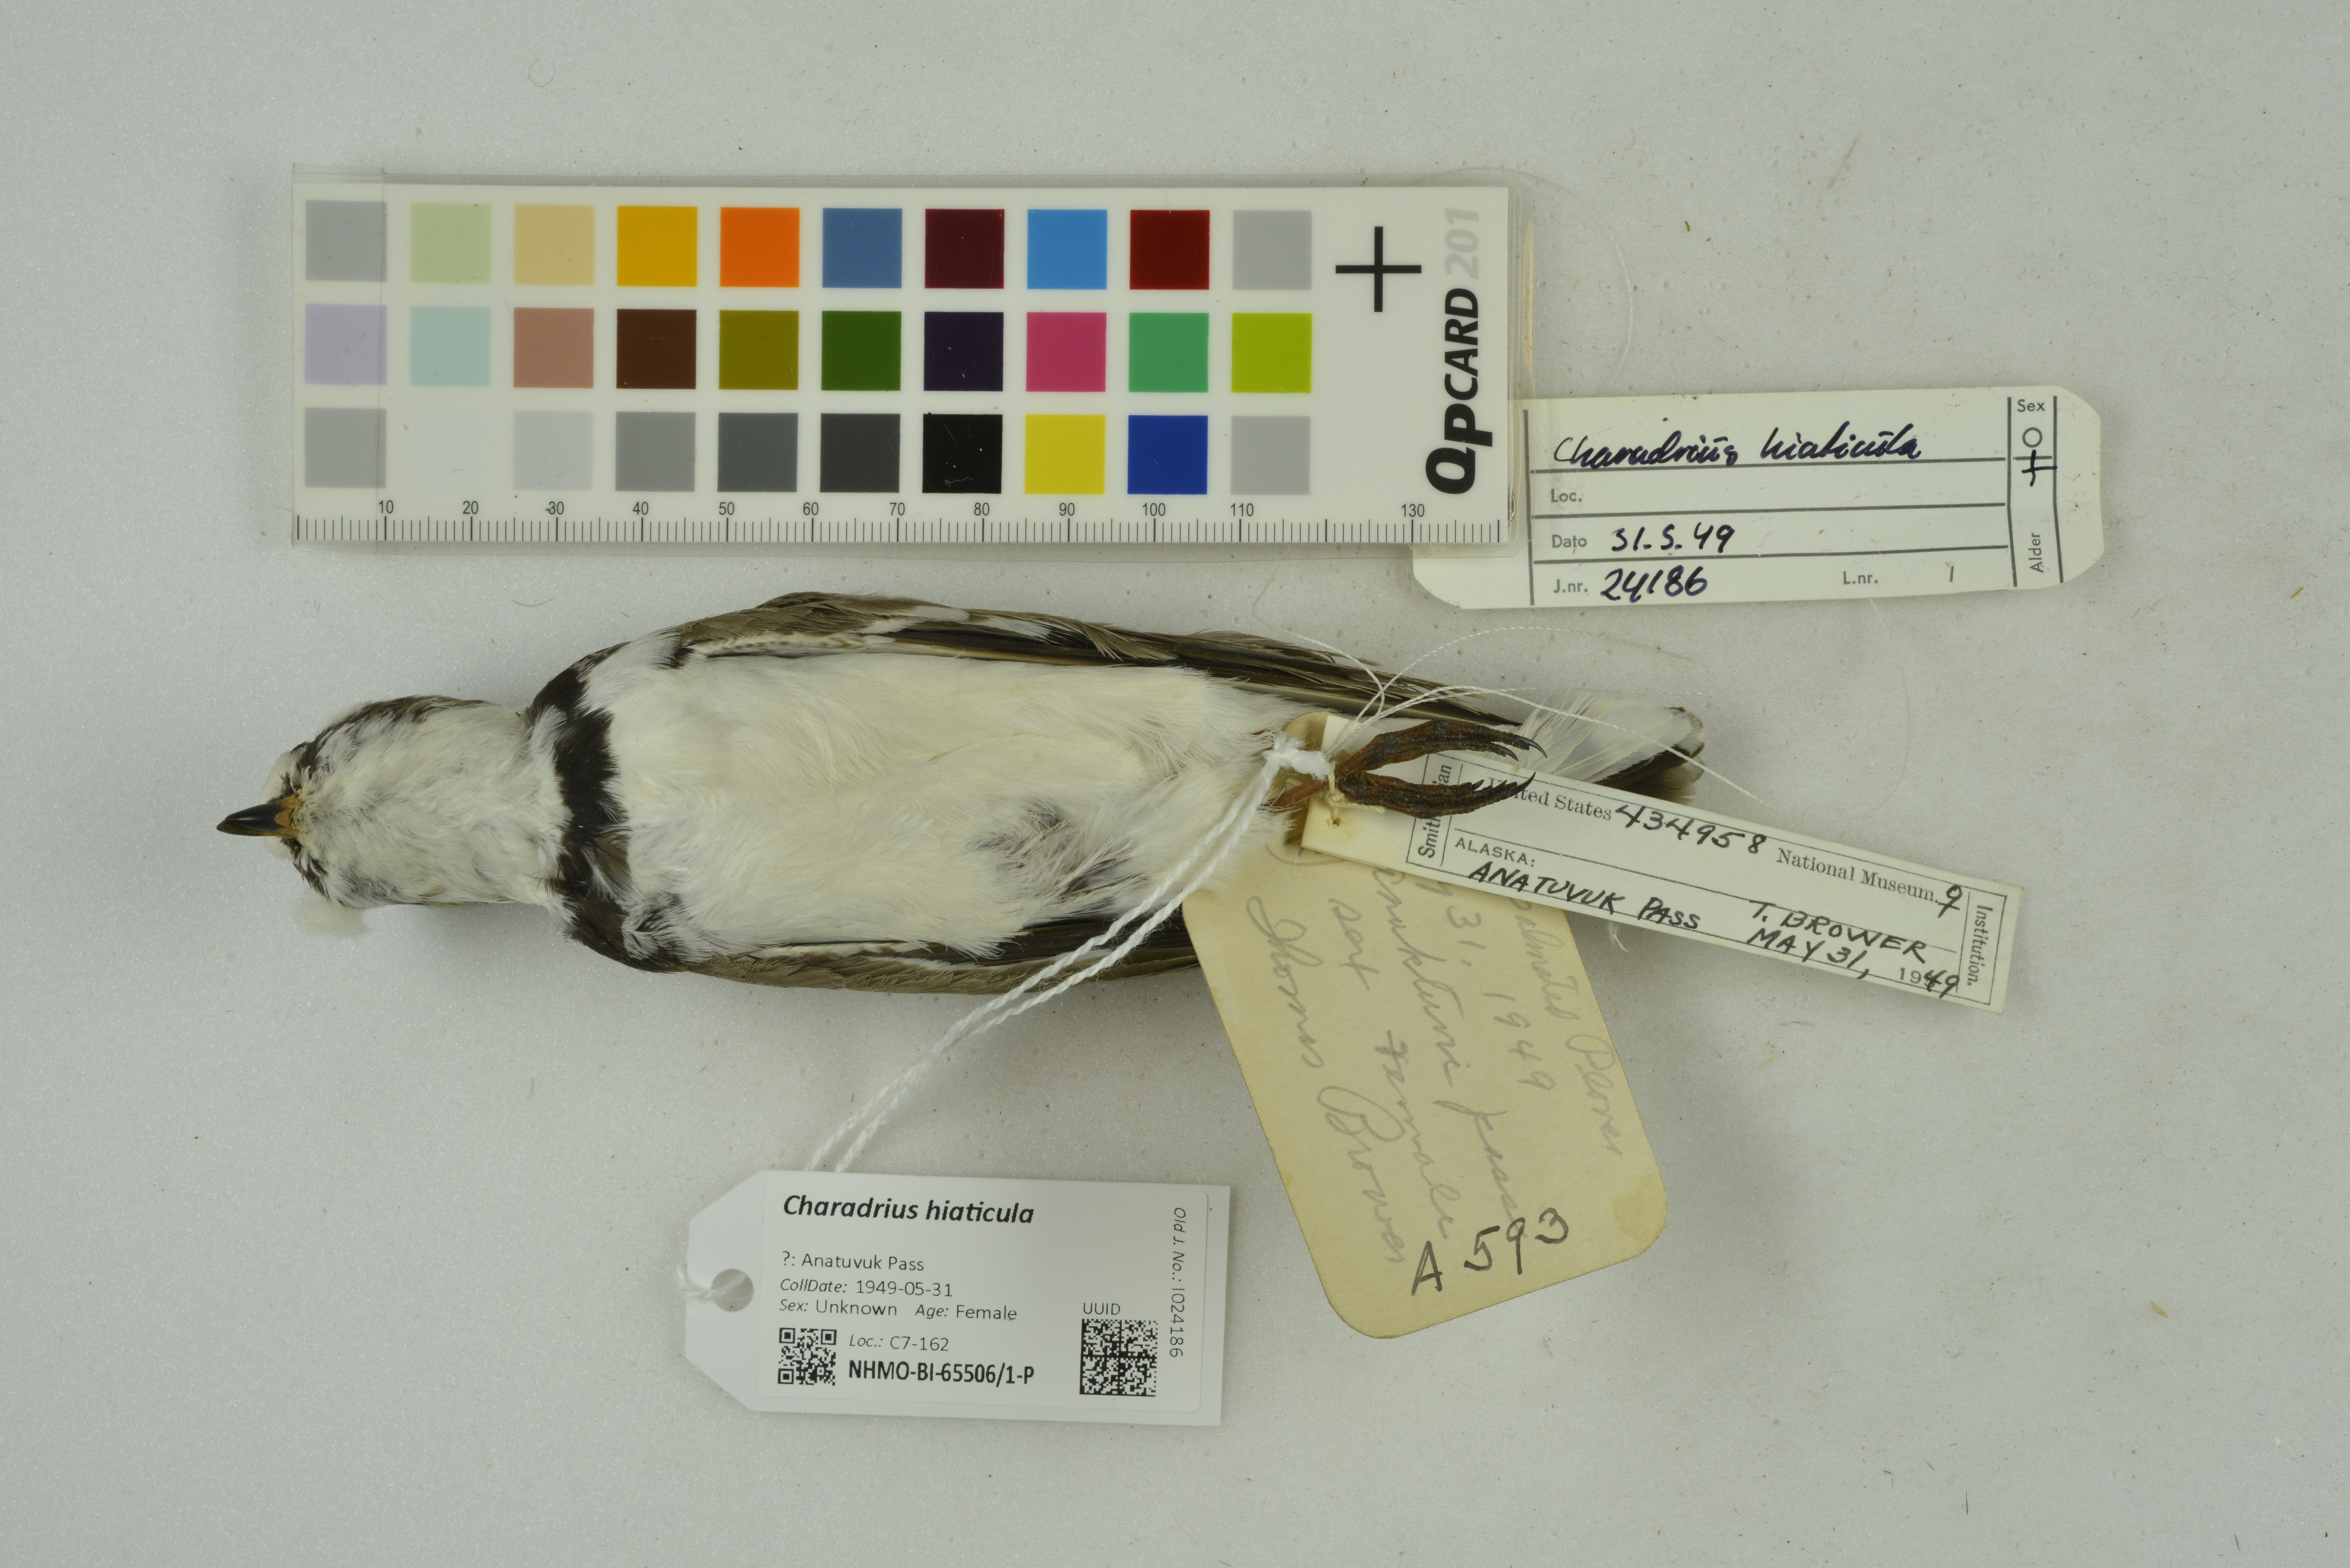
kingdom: Animalia
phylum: Chordata
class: Aves
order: Charadriiformes
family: Charadriidae
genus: Charadrius
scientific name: Charadrius hiaticula
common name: Common ringed plover
